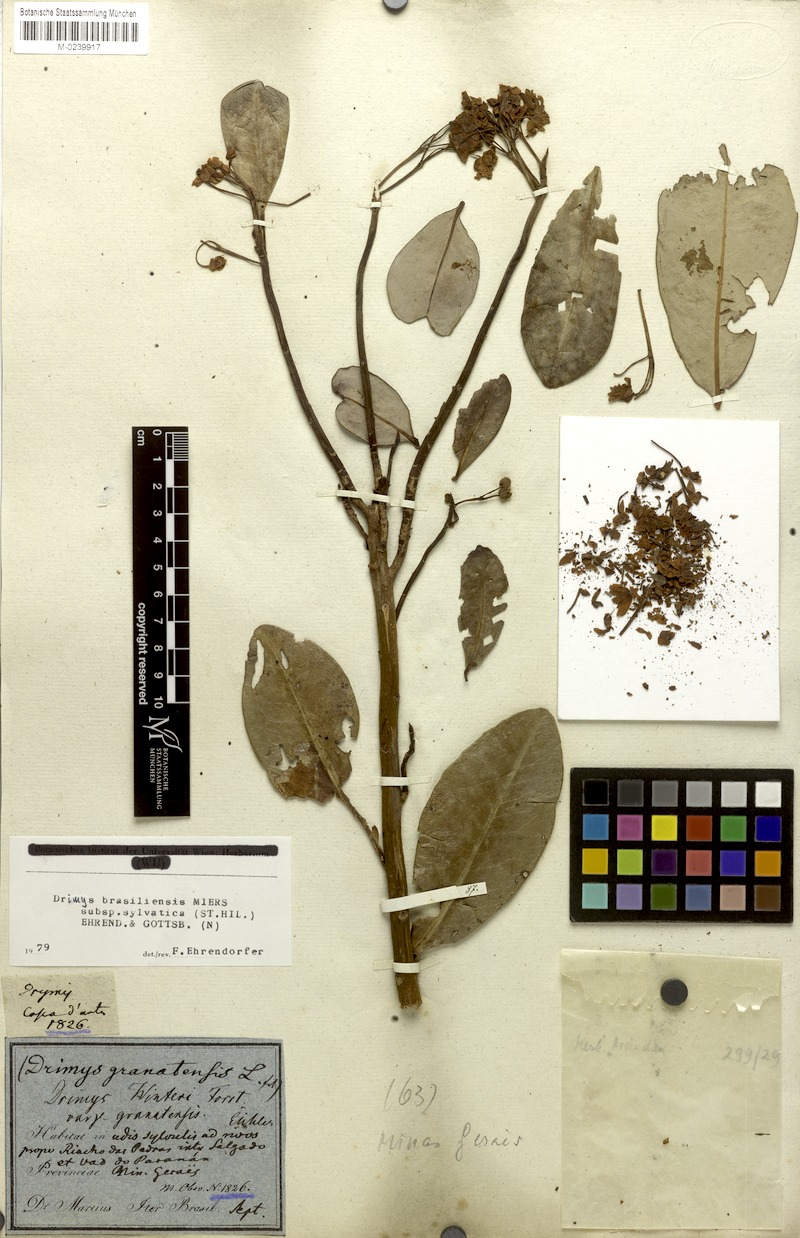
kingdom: Plantae
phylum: Tracheophyta
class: Magnoliopsida
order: Canellales
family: Winteraceae
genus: Drimys
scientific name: Drimys brasiliensis
